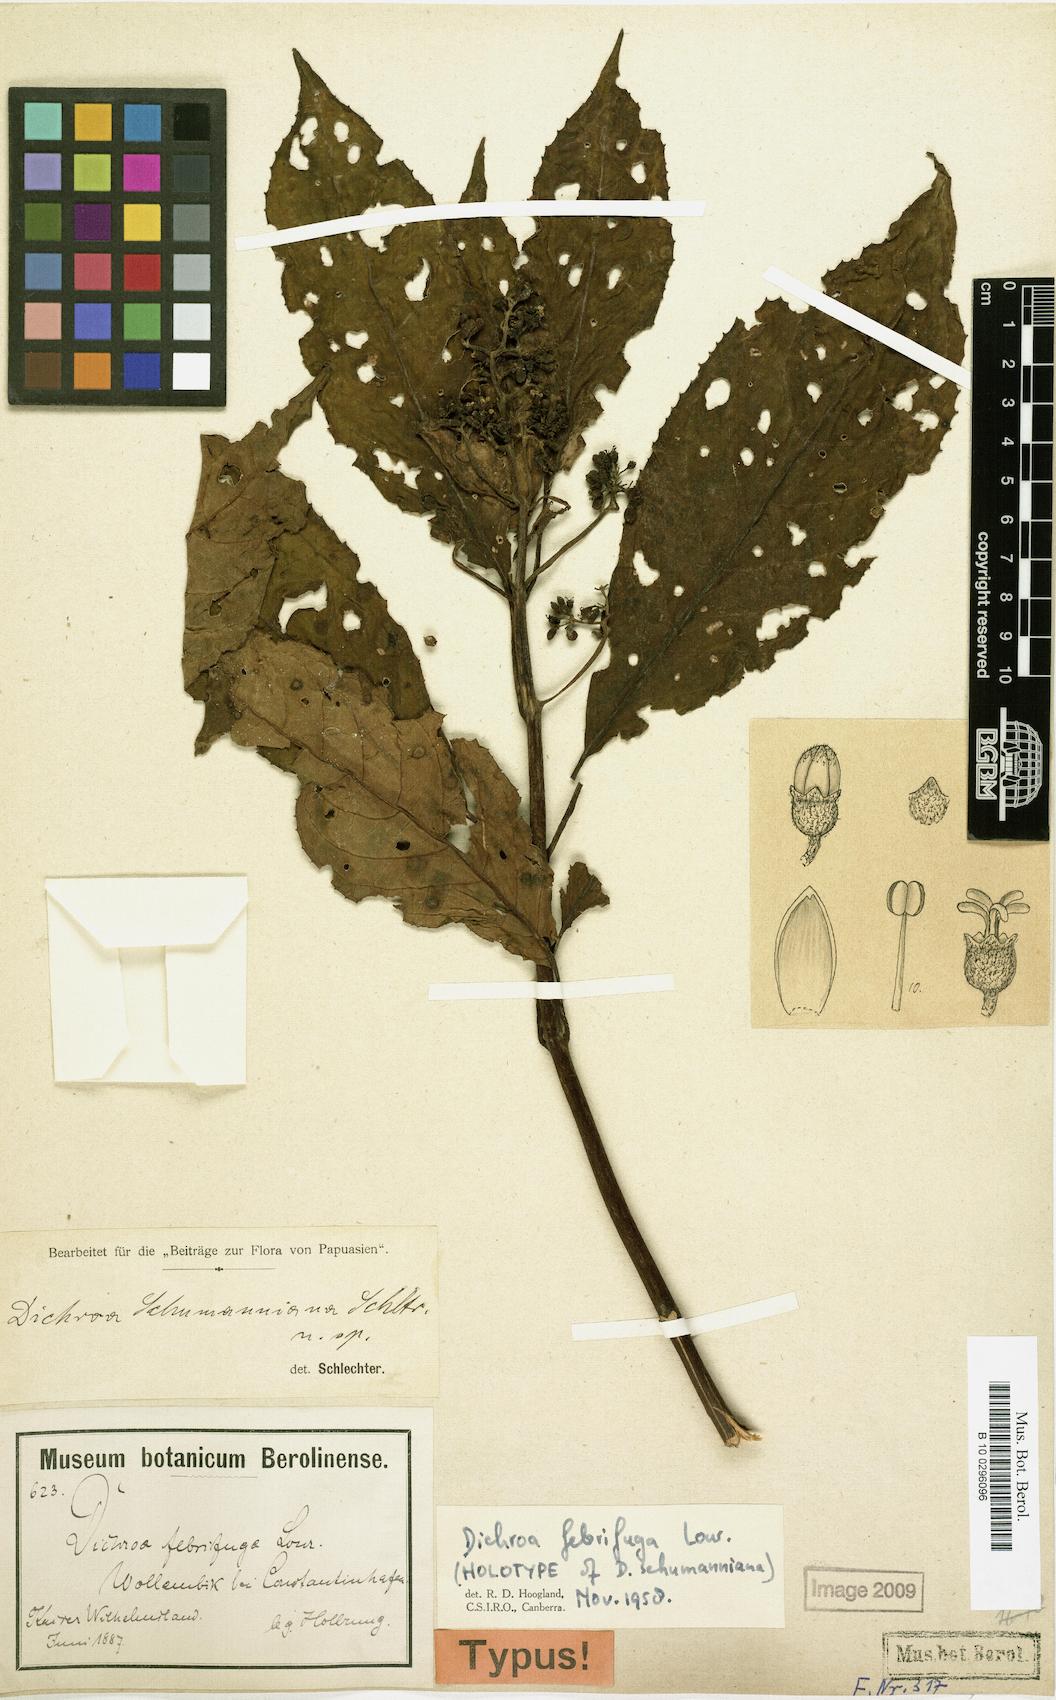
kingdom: Plantae
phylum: Tracheophyta
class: Magnoliopsida
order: Cornales
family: Hydrangeaceae
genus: Hydrangea
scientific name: Hydrangea febrifuga
